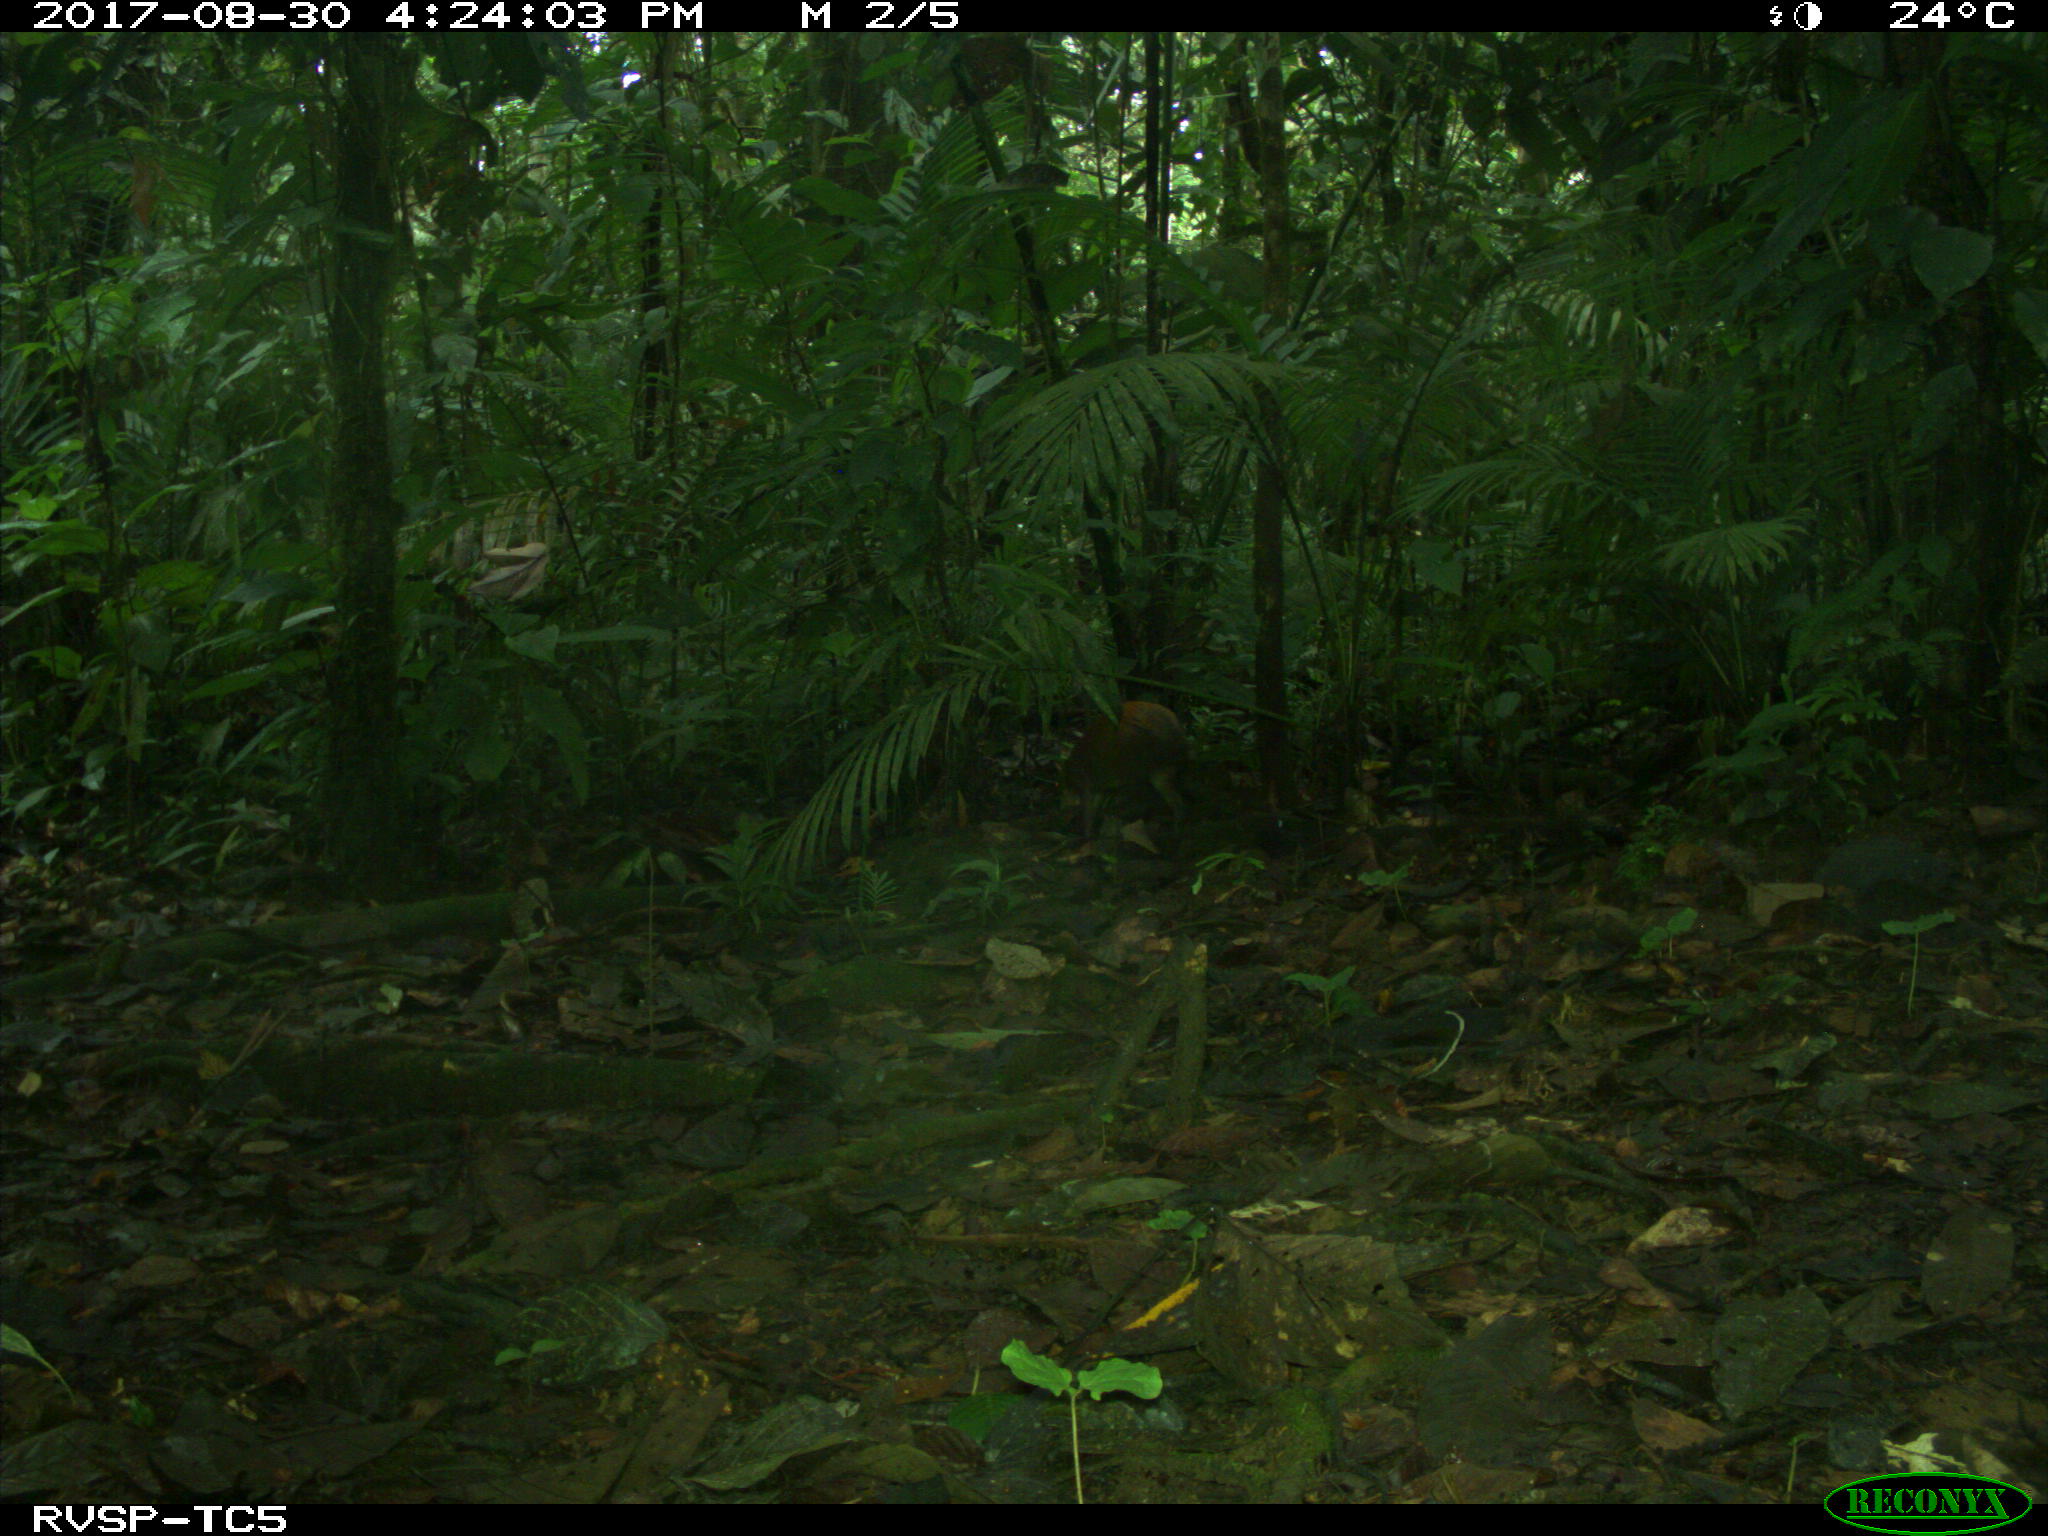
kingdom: Animalia
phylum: Chordata
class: Mammalia
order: Rodentia
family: Dasyproctidae
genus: Dasyprocta
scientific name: Dasyprocta punctata
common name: Central american agouti
